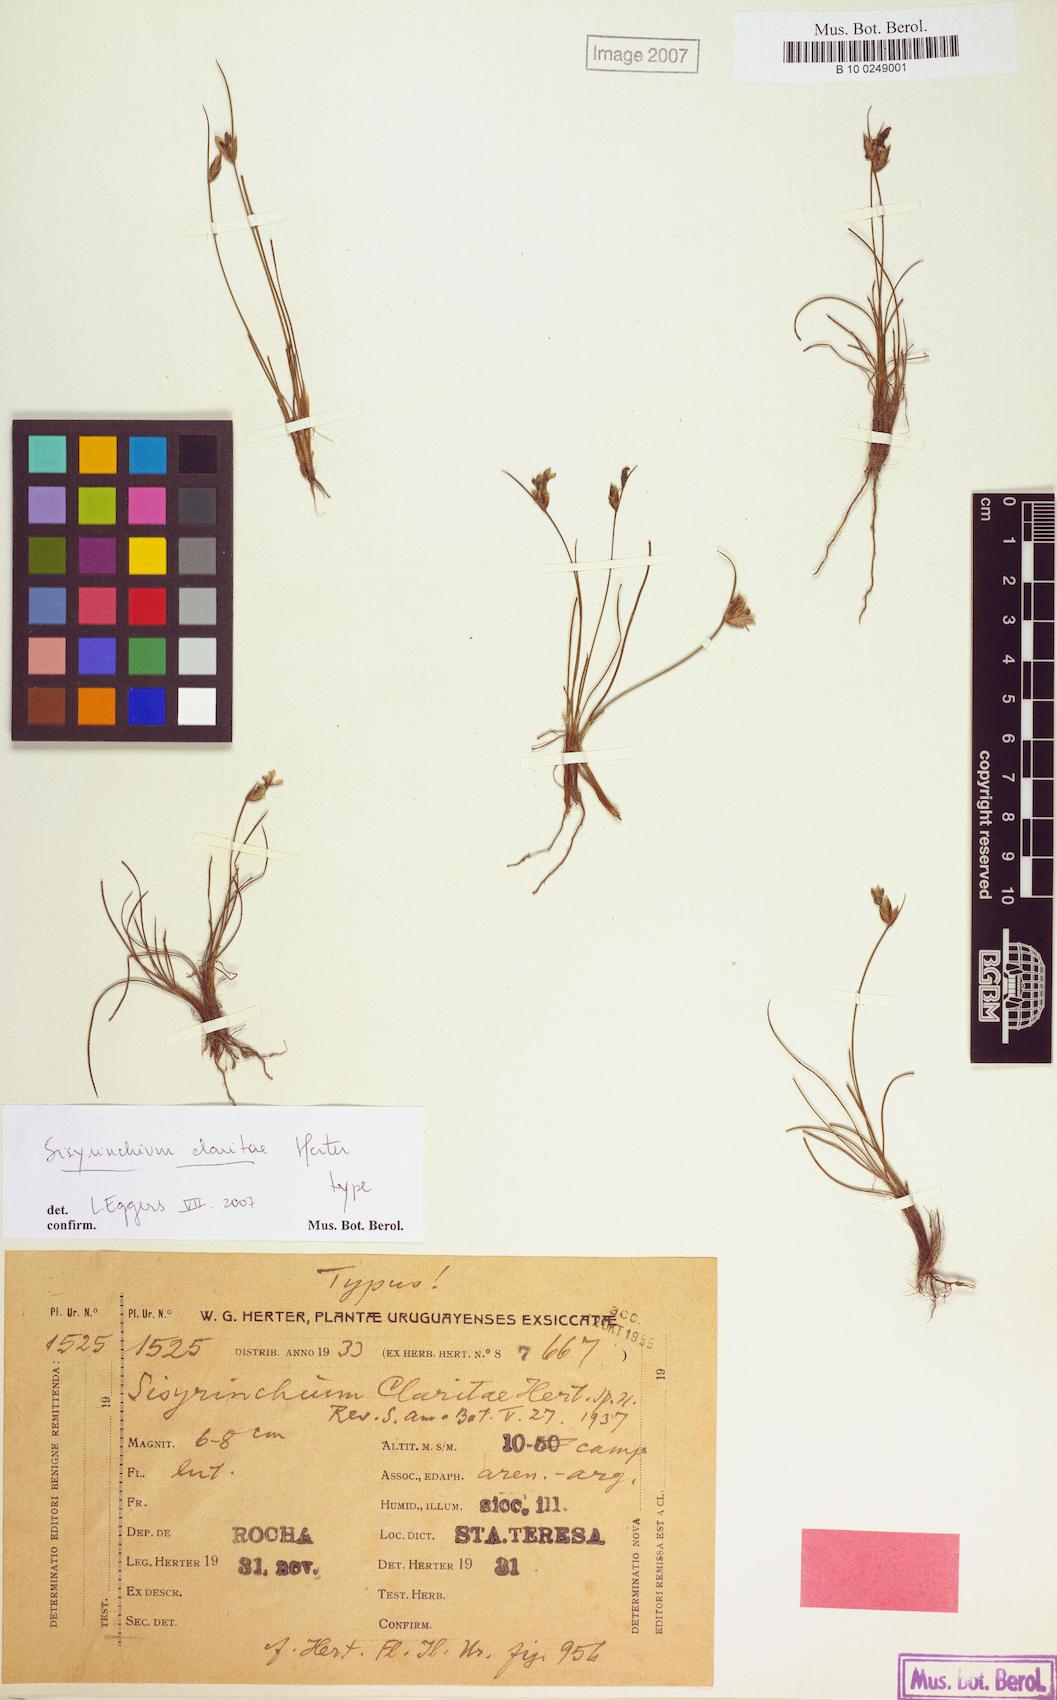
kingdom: Plantae
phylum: Tracheophyta
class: Liliopsida
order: Asparagales
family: Iridaceae
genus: Sisyrinchium
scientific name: Sisyrinchium claritae
